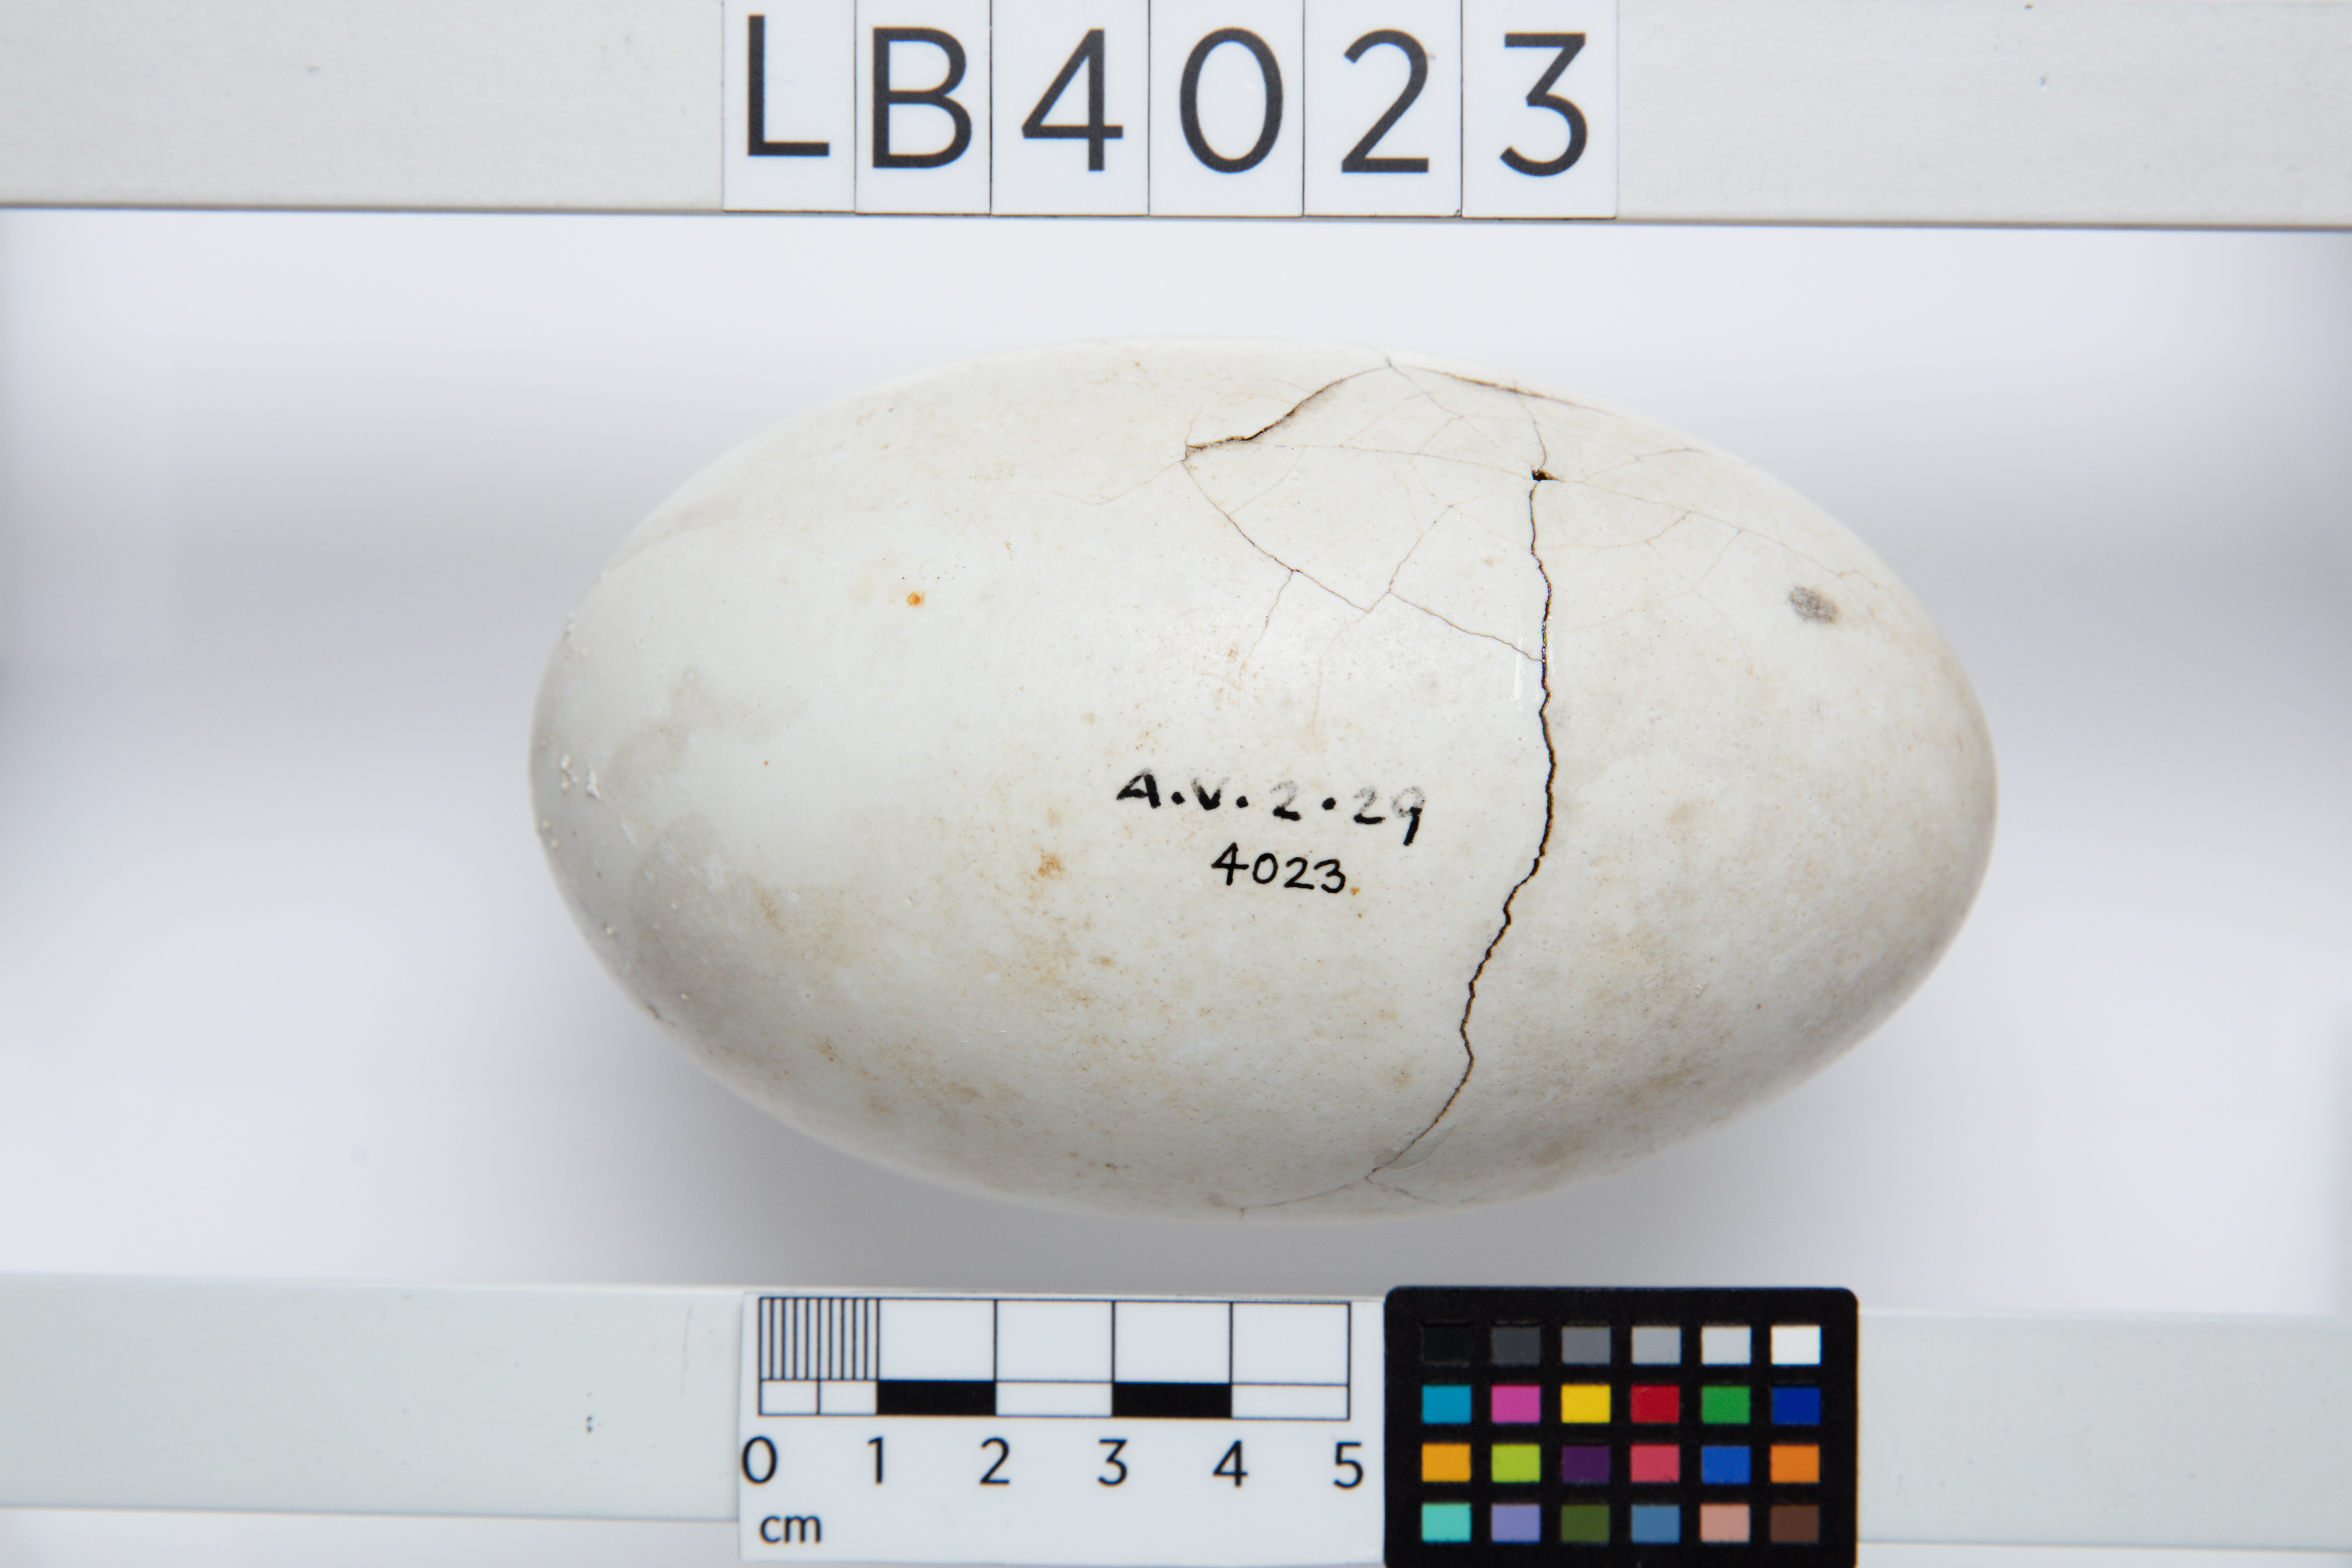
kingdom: Animalia
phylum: Chordata
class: Aves
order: Apterygiformes
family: Apterygidae
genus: Apteryx
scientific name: Apteryx mantelli
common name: North island brown kiwi
